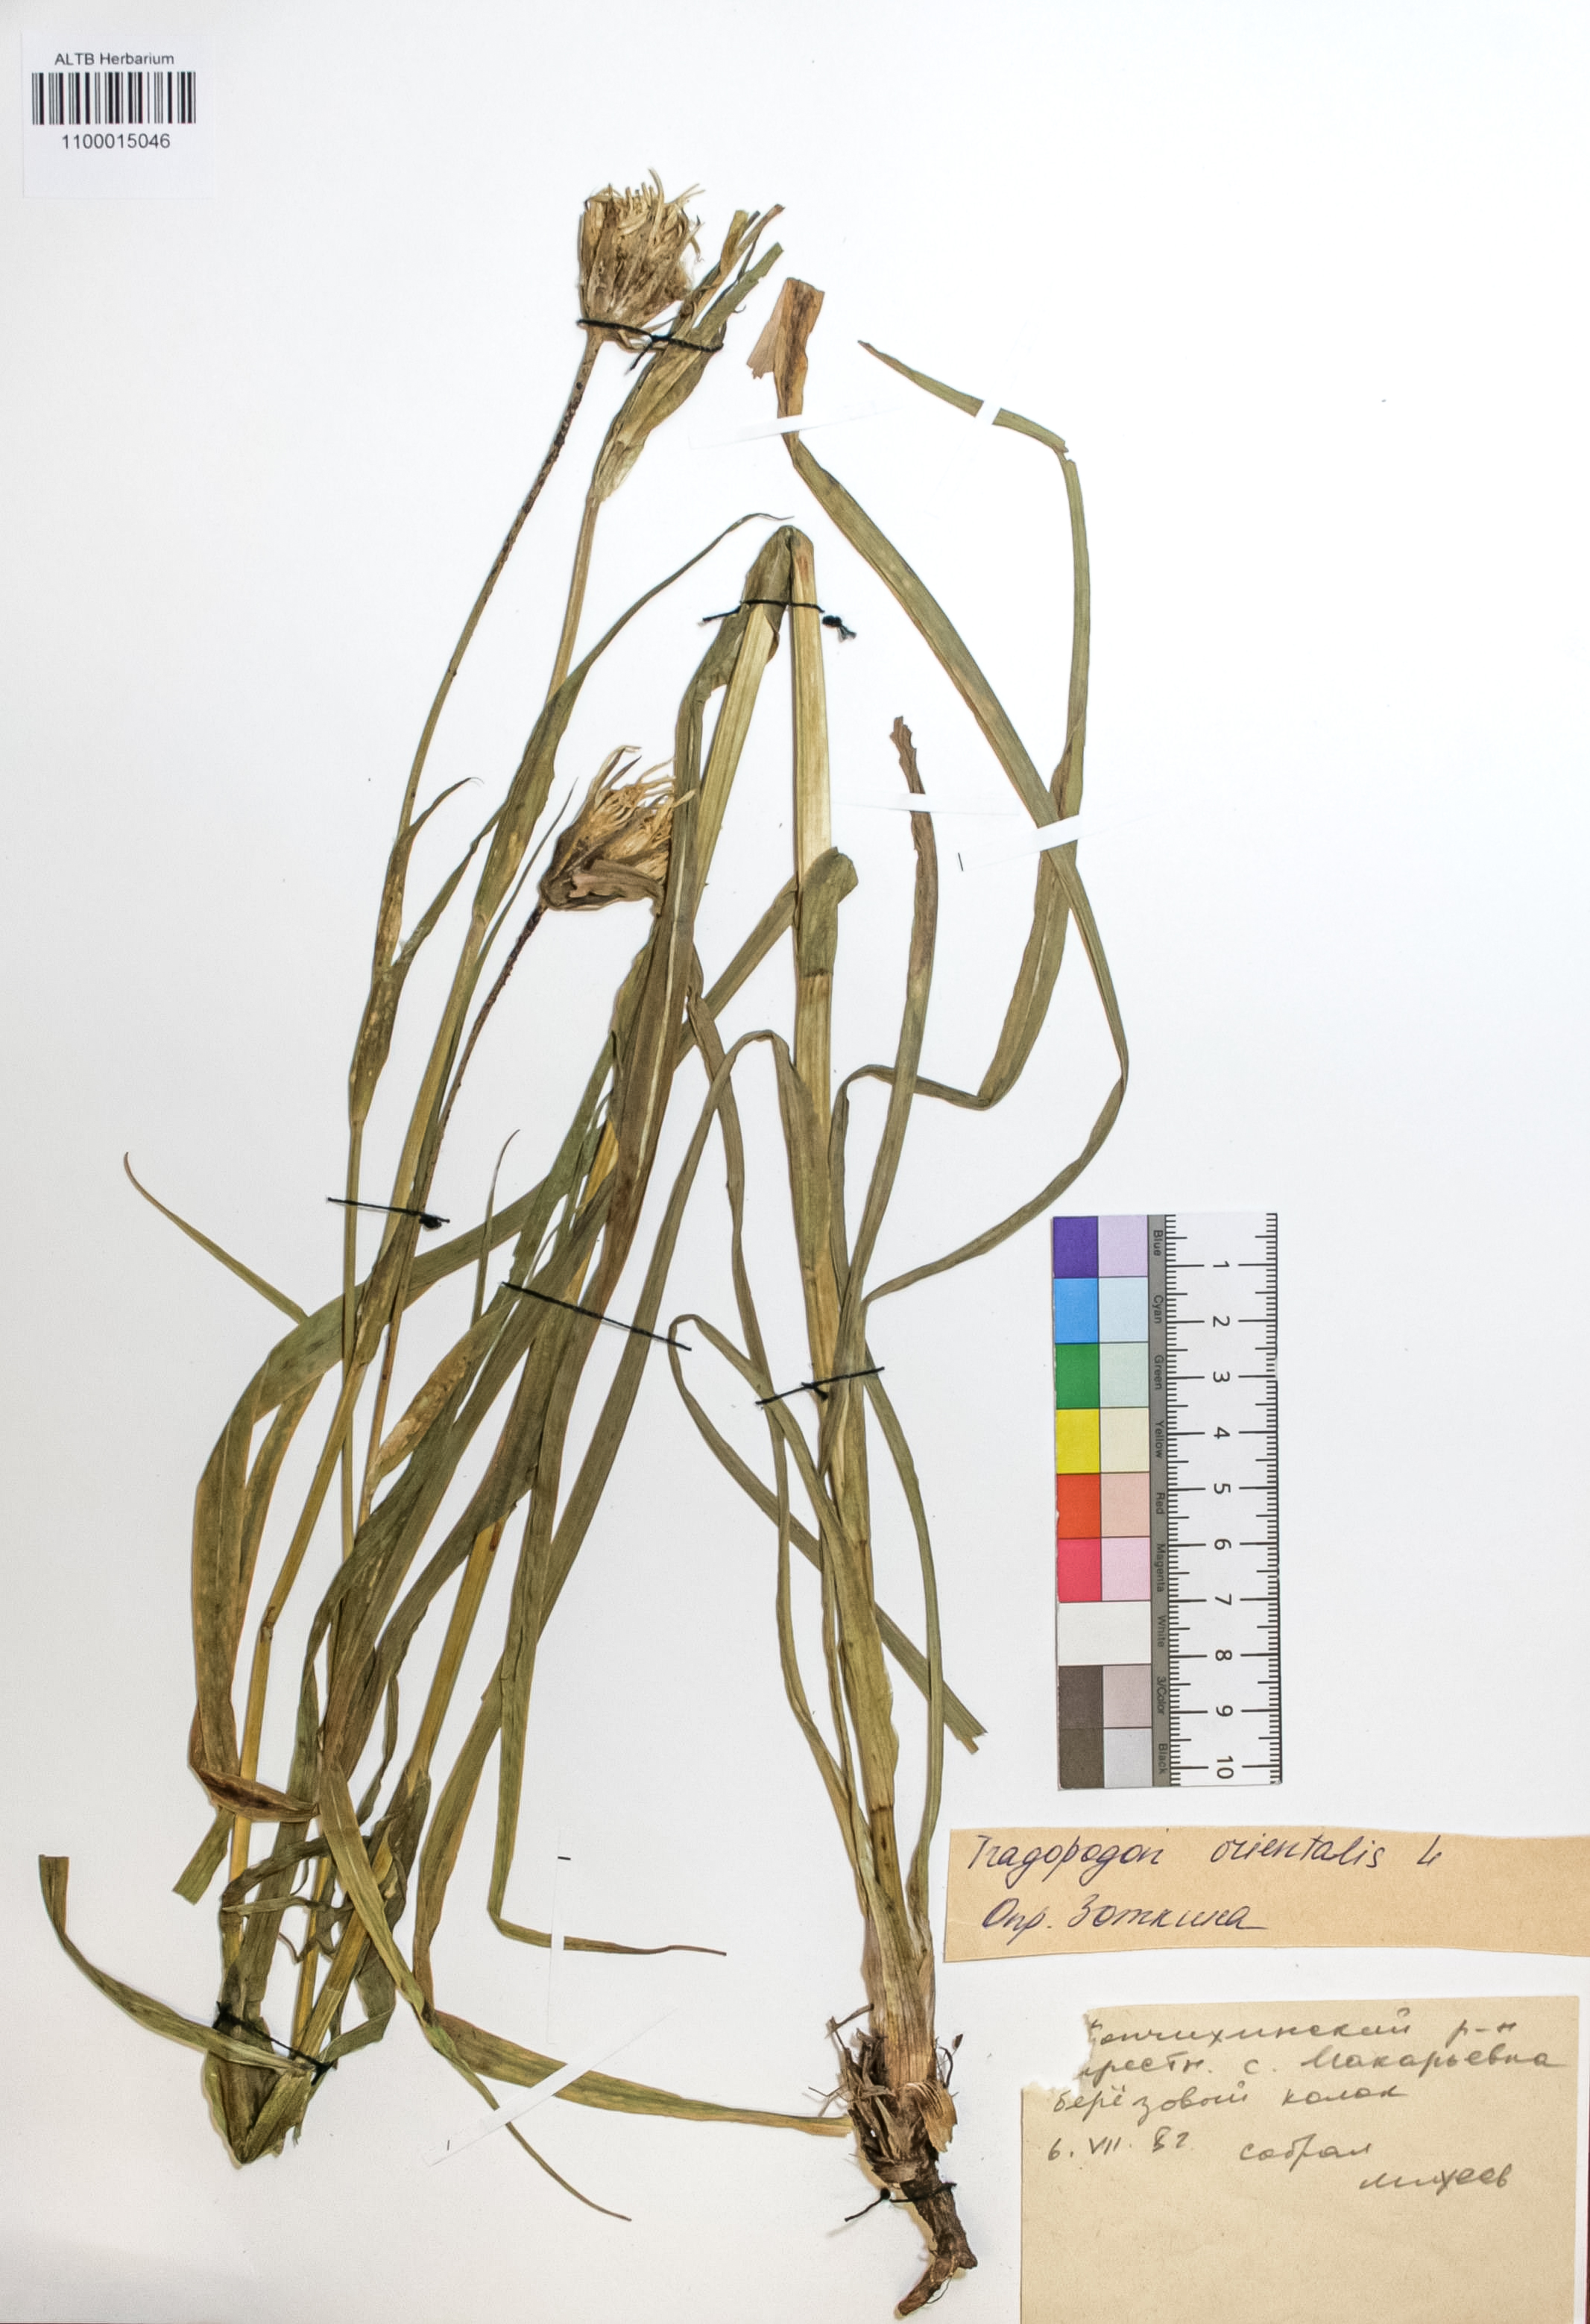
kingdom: Plantae
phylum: Tracheophyta
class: Magnoliopsida
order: Asterales
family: Asteraceae
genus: Tragopogon
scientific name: Tragopogon orientalis
